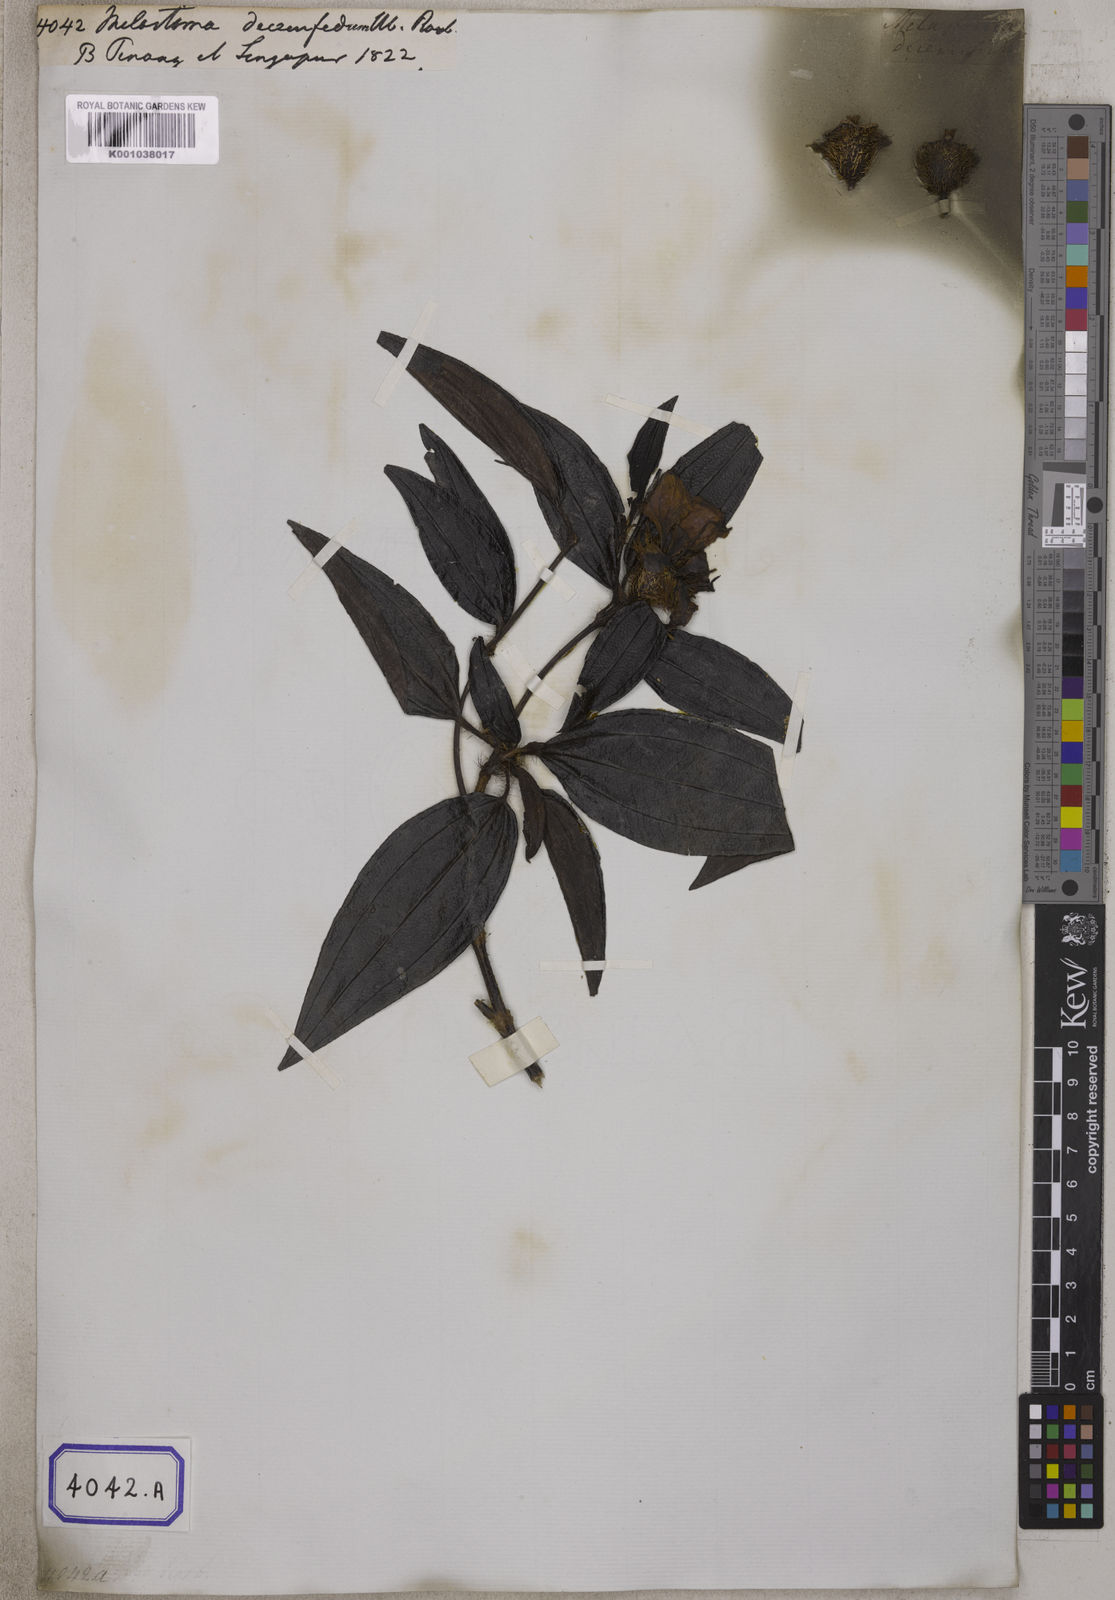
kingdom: Plantae
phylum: Tracheophyta
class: Magnoliopsida
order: Myrtales
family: Melastomataceae
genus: Melastoma
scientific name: Melastoma sanguineum
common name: Red melastome
